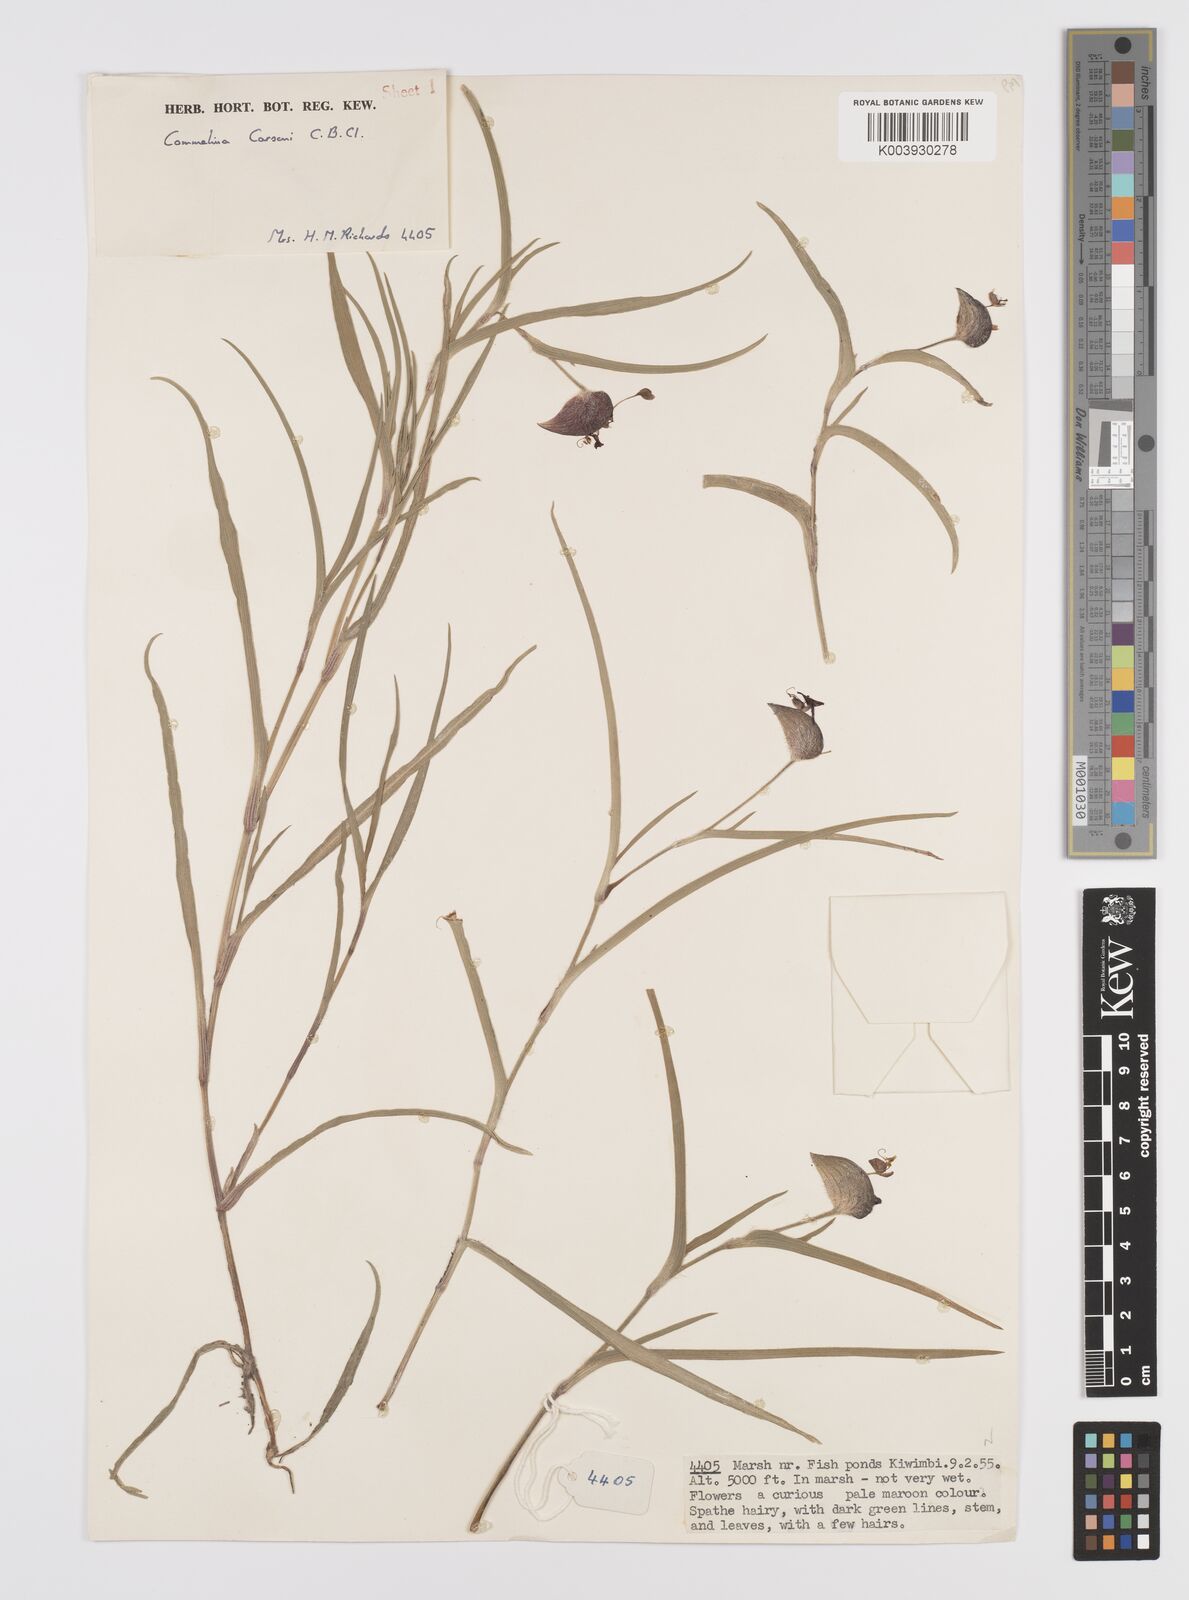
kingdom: Plantae
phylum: Tracheophyta
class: Liliopsida
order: Commelinales
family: Commelinaceae
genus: Commelina
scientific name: Commelina schweinfurthii
